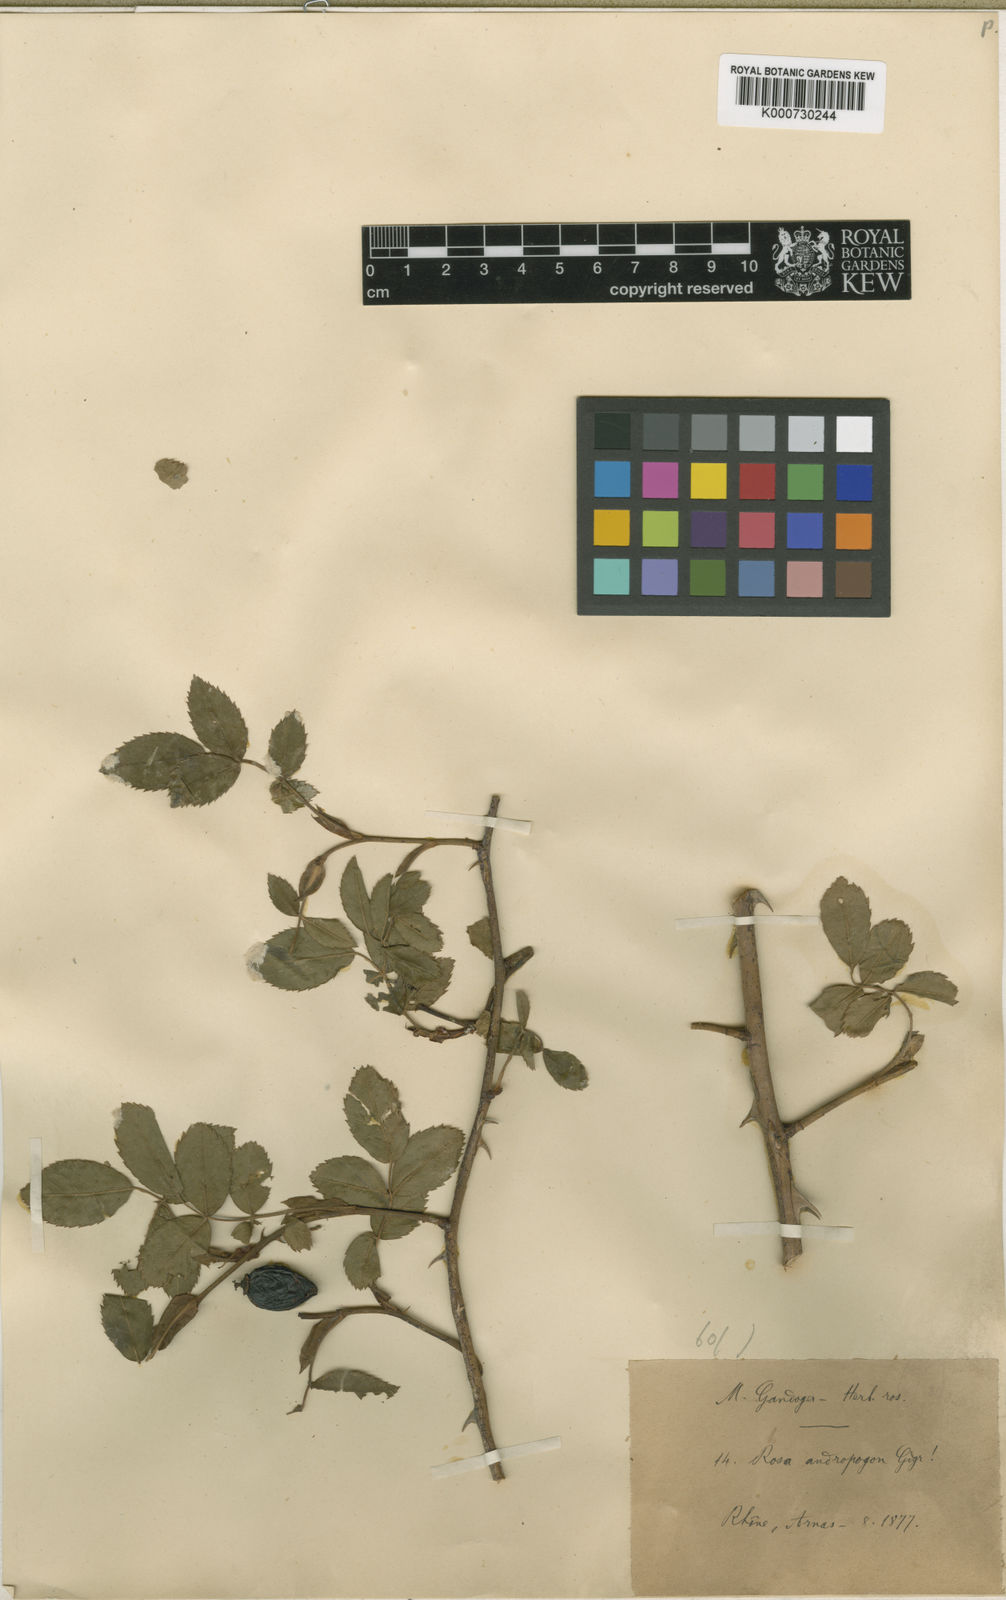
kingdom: Plantae
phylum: Tracheophyta
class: Magnoliopsida
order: Rosales
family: Rosaceae
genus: Rosa
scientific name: Rosa canina
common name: Dog rose
